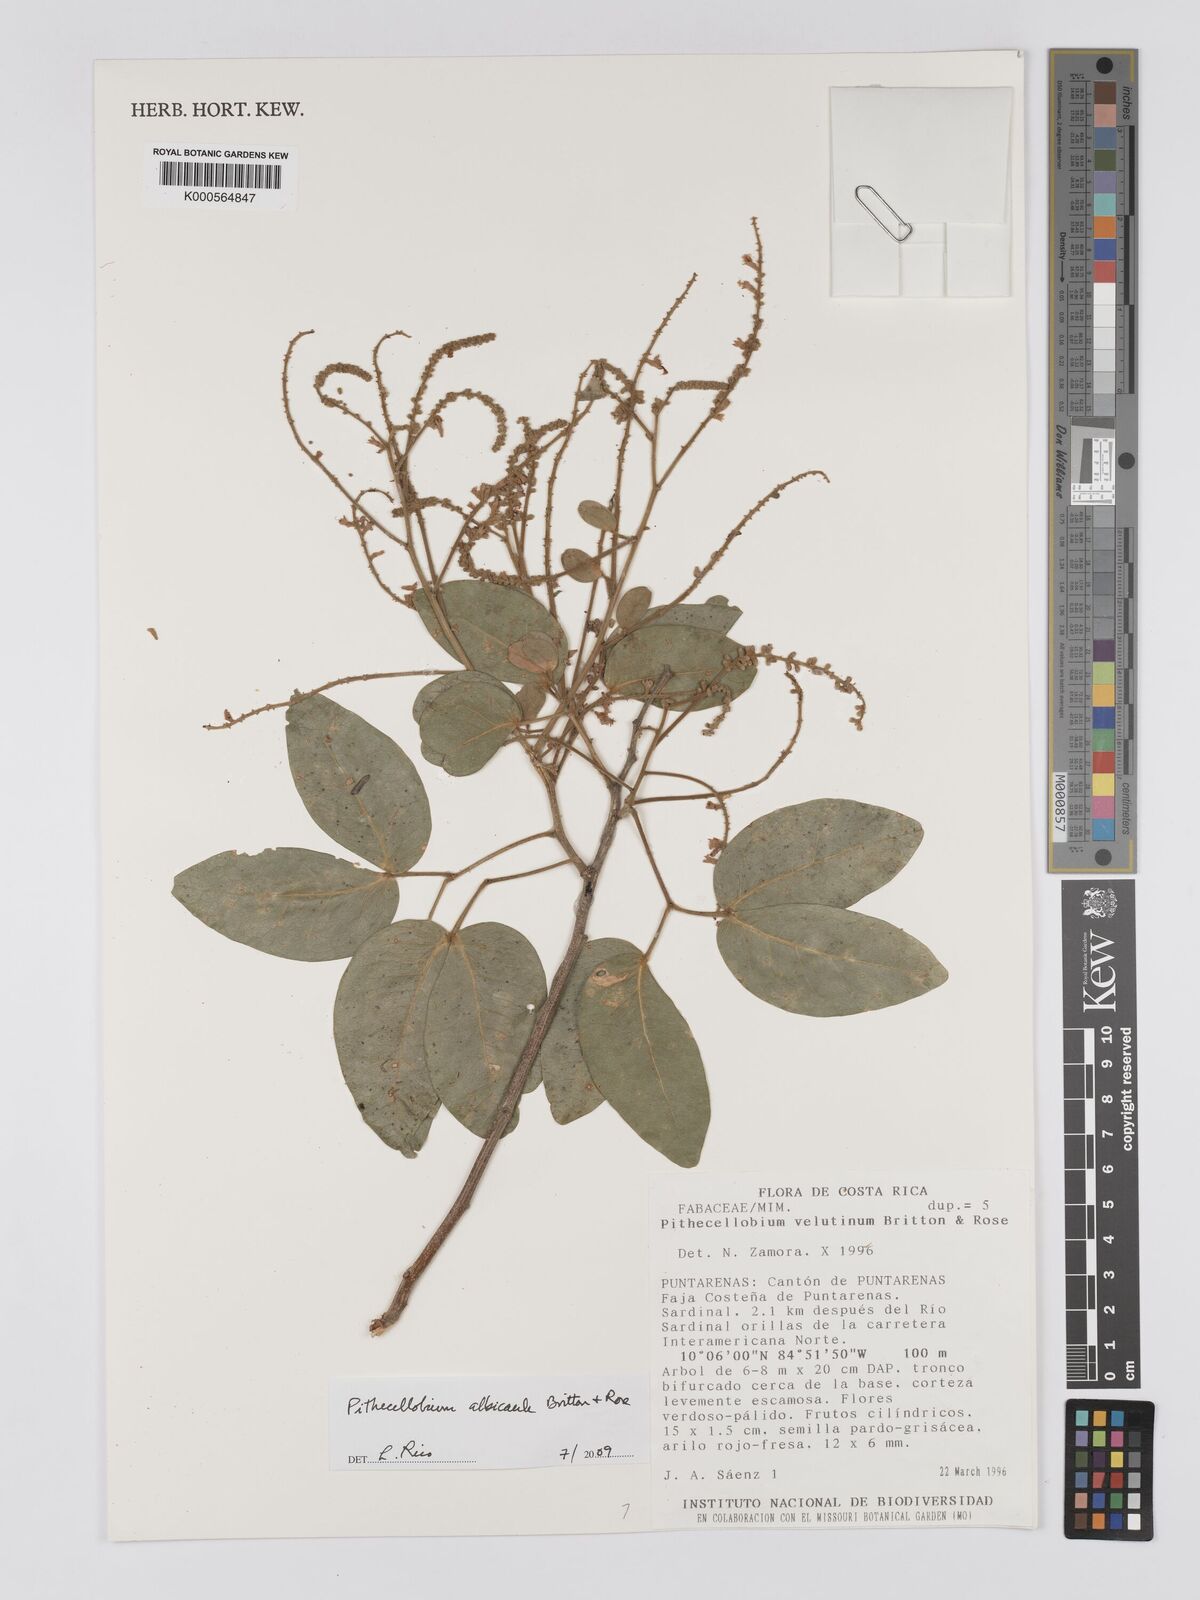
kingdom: Plantae
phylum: Tracheophyta
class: Magnoliopsida
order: Fabales
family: Fabaceae
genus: Pithecellobium
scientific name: Pithecellobium lanceolatum
